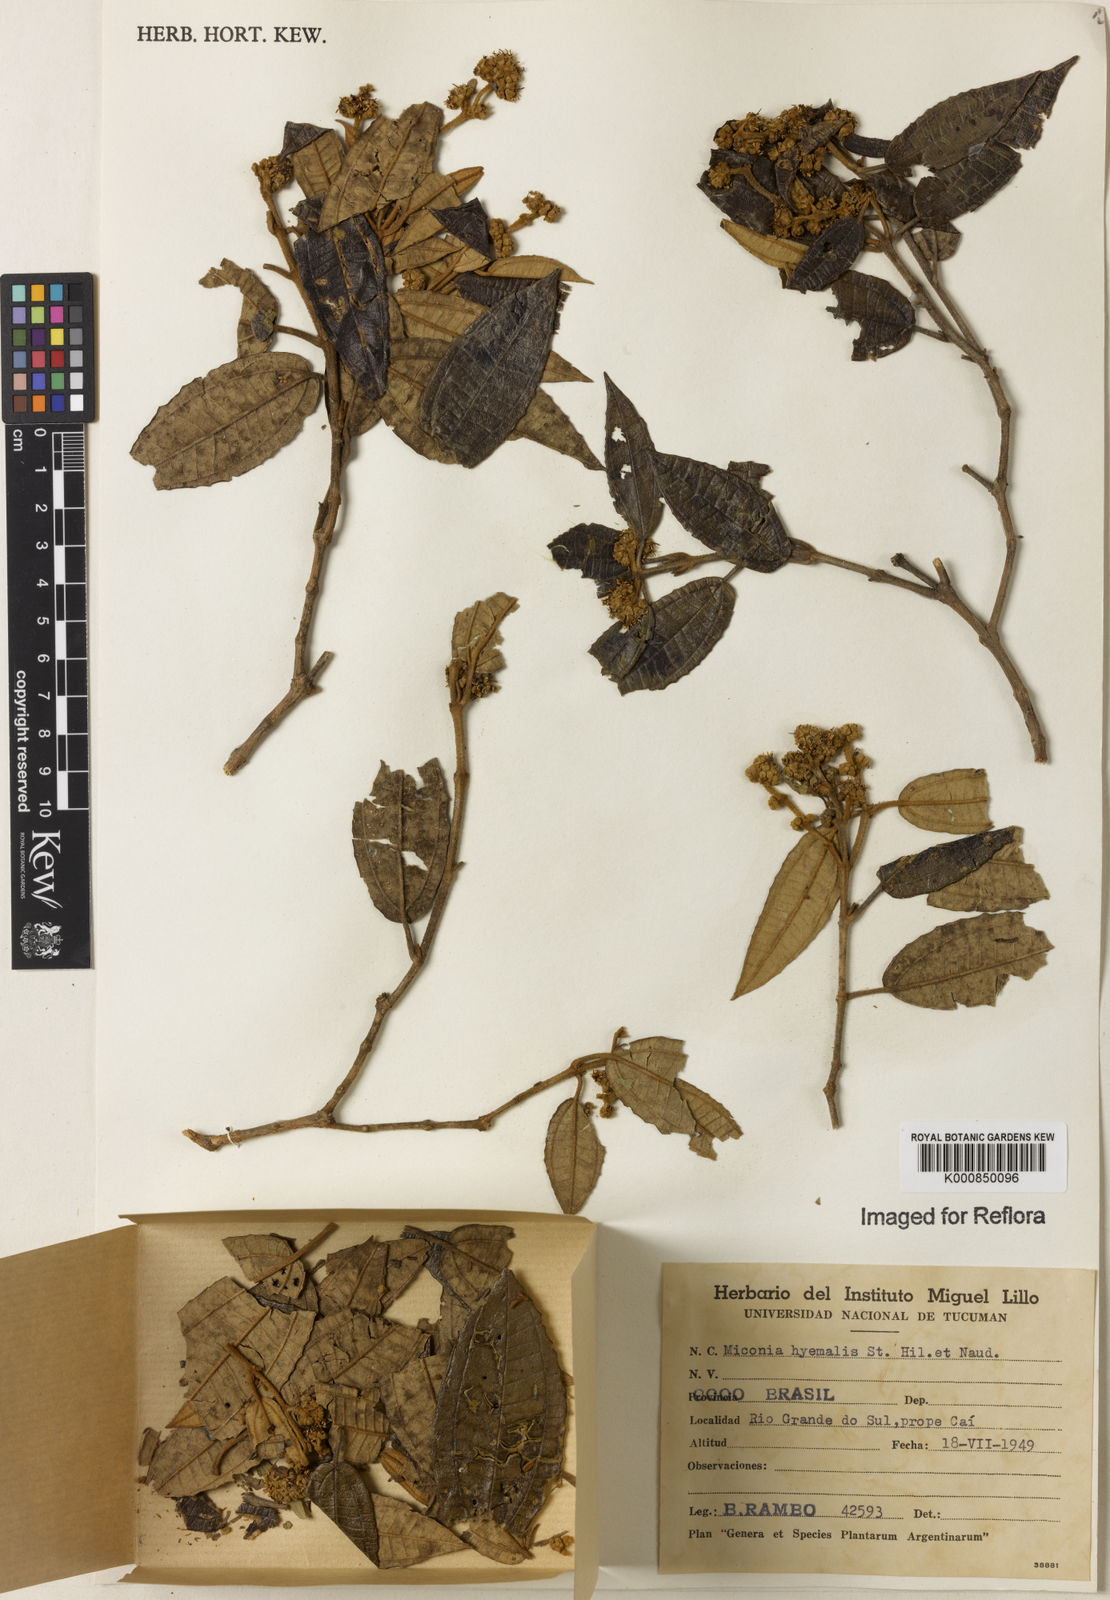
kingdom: Plantae
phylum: Tracheophyta
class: Magnoliopsida
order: Myrtales
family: Melastomataceae
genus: Miconia
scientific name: Miconia hyemalis
